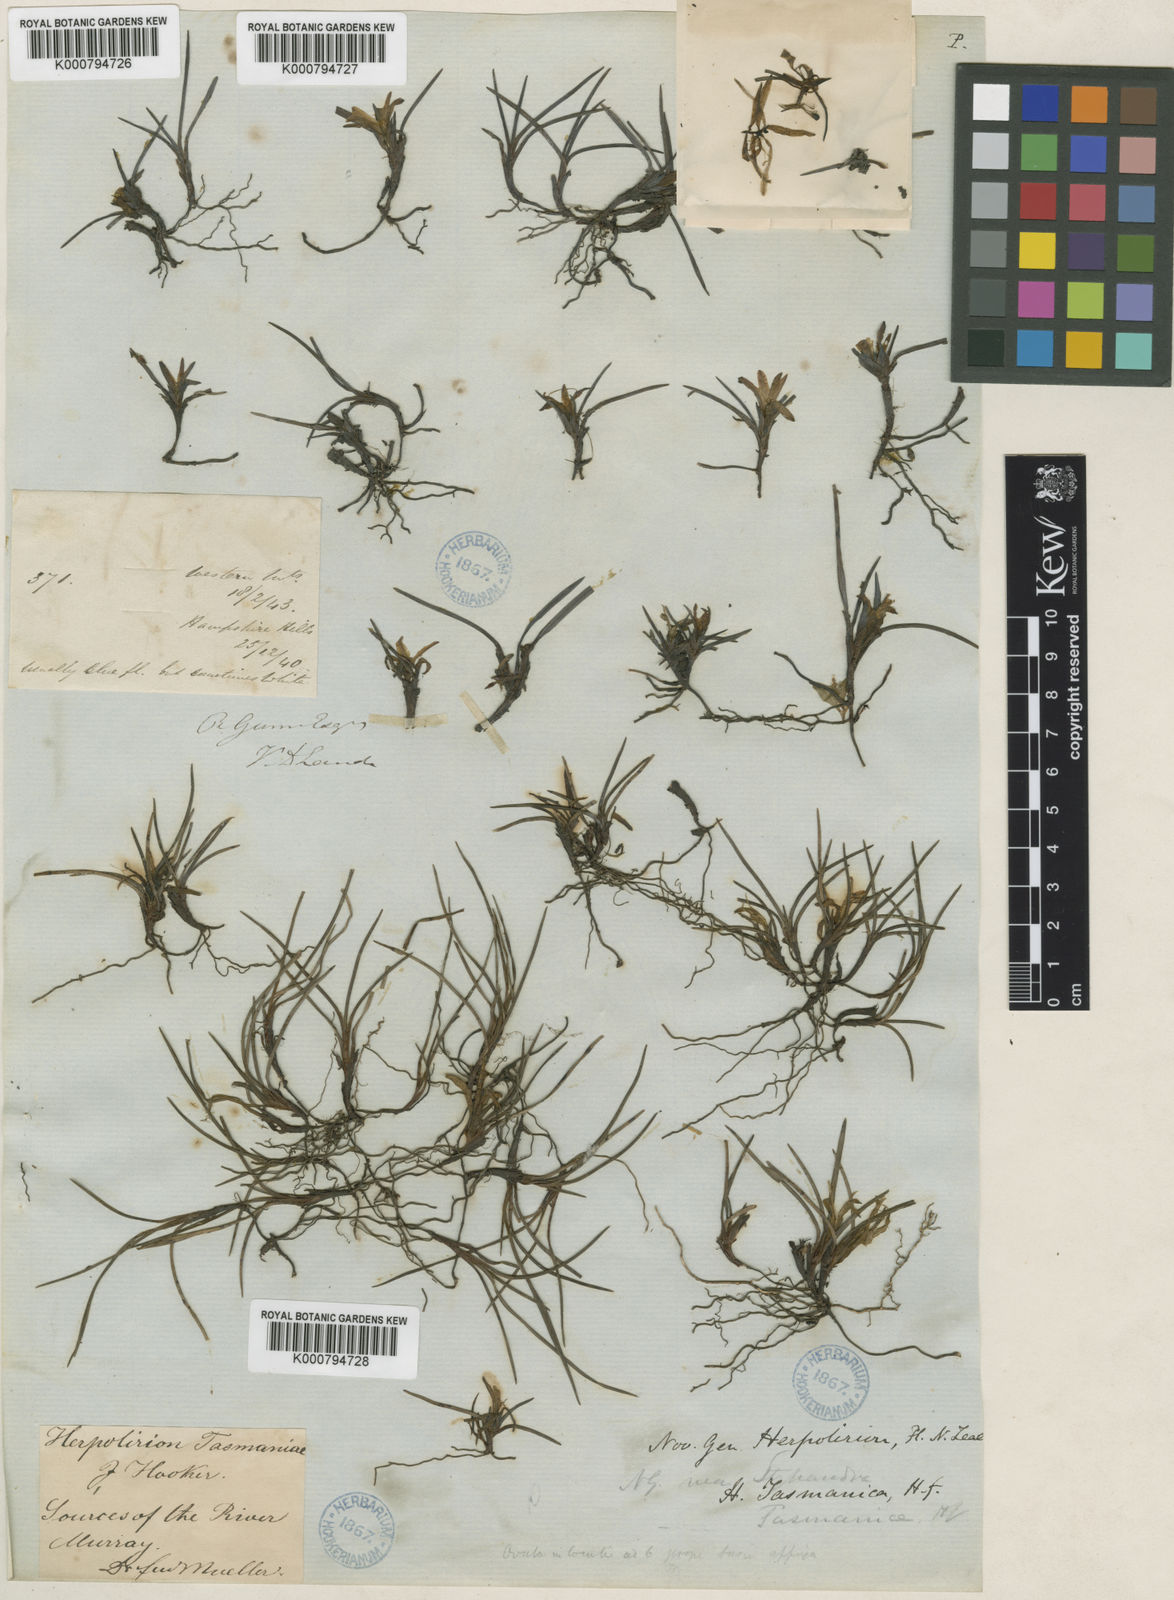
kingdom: Plantae
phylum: Tracheophyta
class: Liliopsida
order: Asparagales
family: Asphodelaceae
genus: Herpolirion
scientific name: Herpolirion novae-zelandiae
